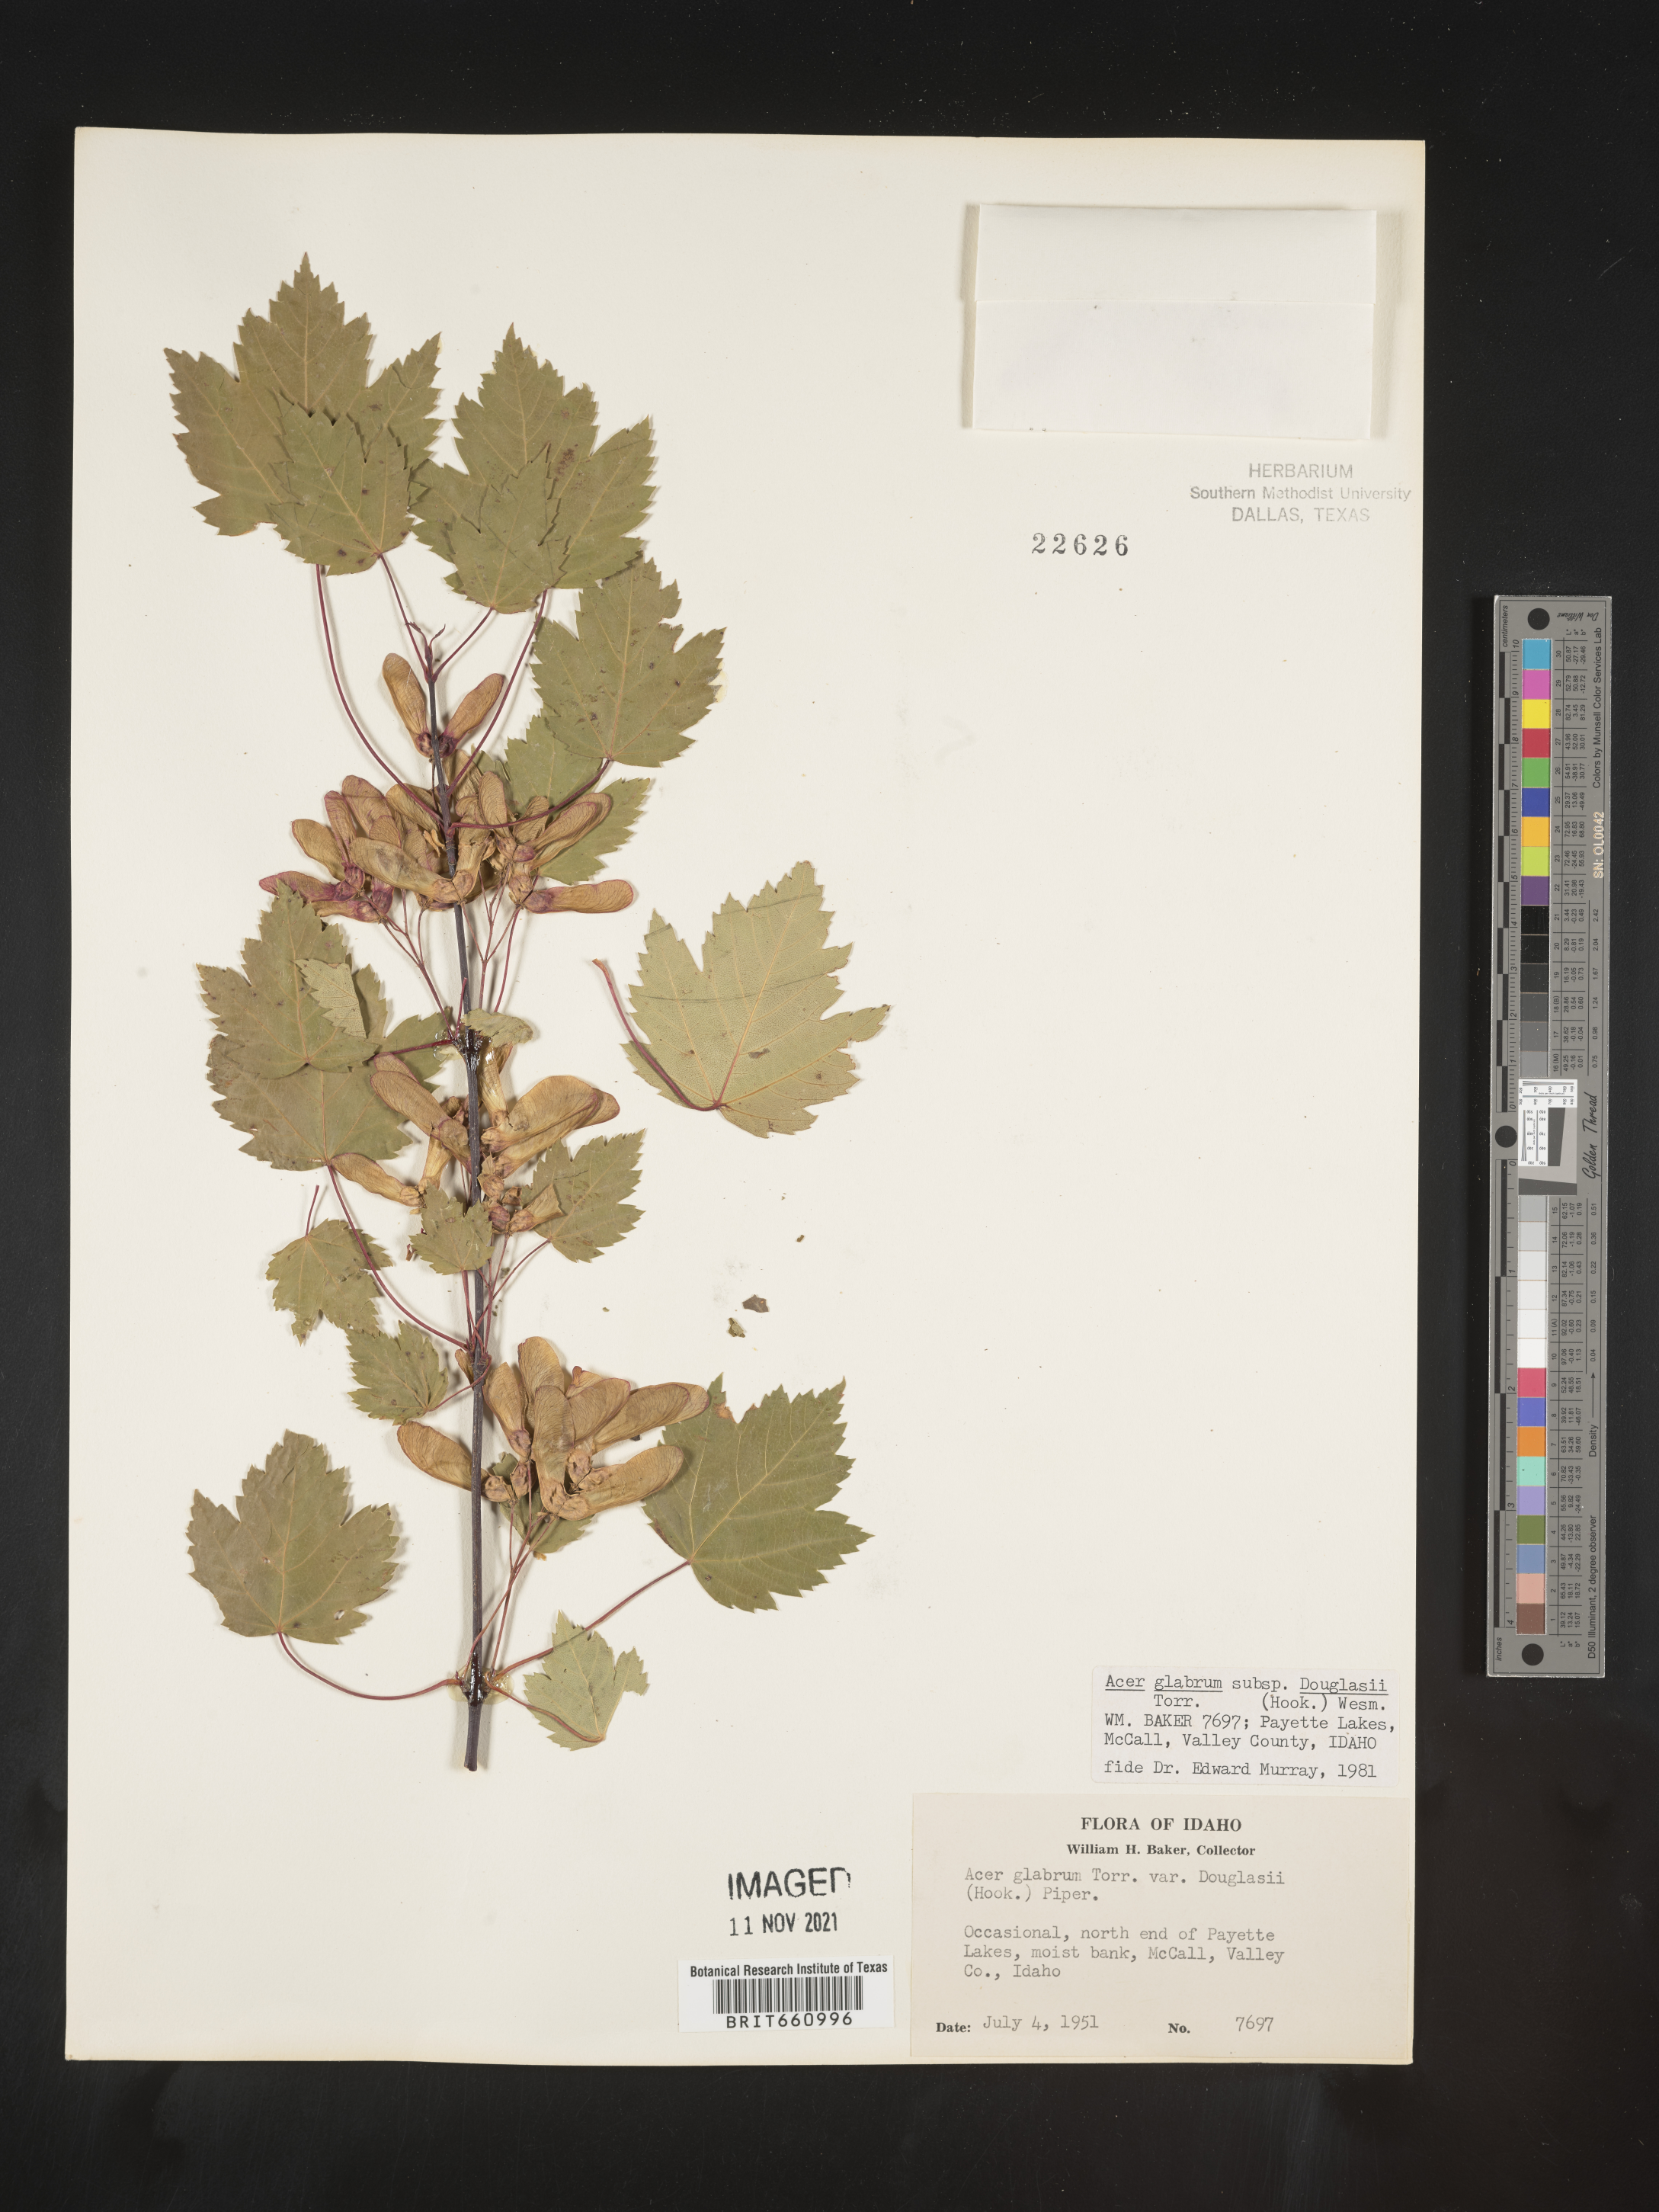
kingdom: Plantae
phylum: Tracheophyta
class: Magnoliopsida
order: Sapindales
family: Sapindaceae
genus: Acer
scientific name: Acer glabrum
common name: Rocky mountain maple
